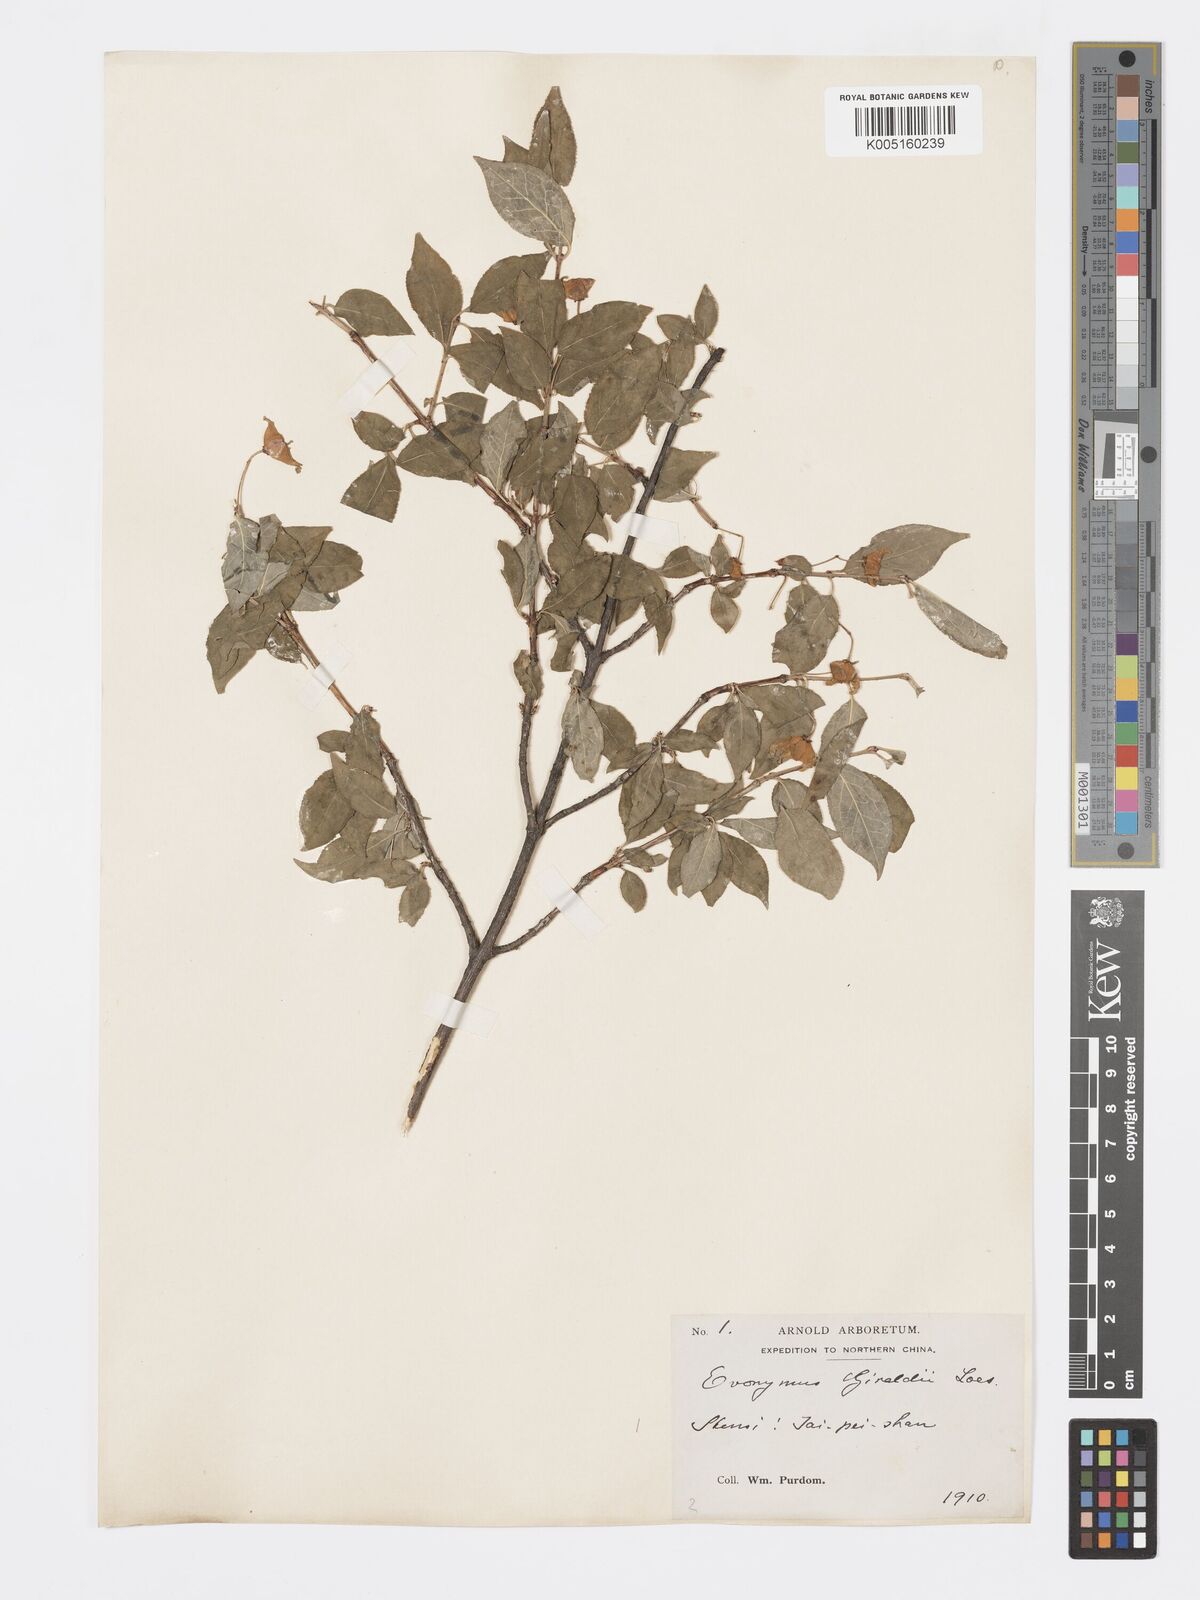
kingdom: Plantae
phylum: Tracheophyta
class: Magnoliopsida
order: Celastrales
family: Celastraceae
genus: Euonymus
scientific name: Euonymus giraldii
